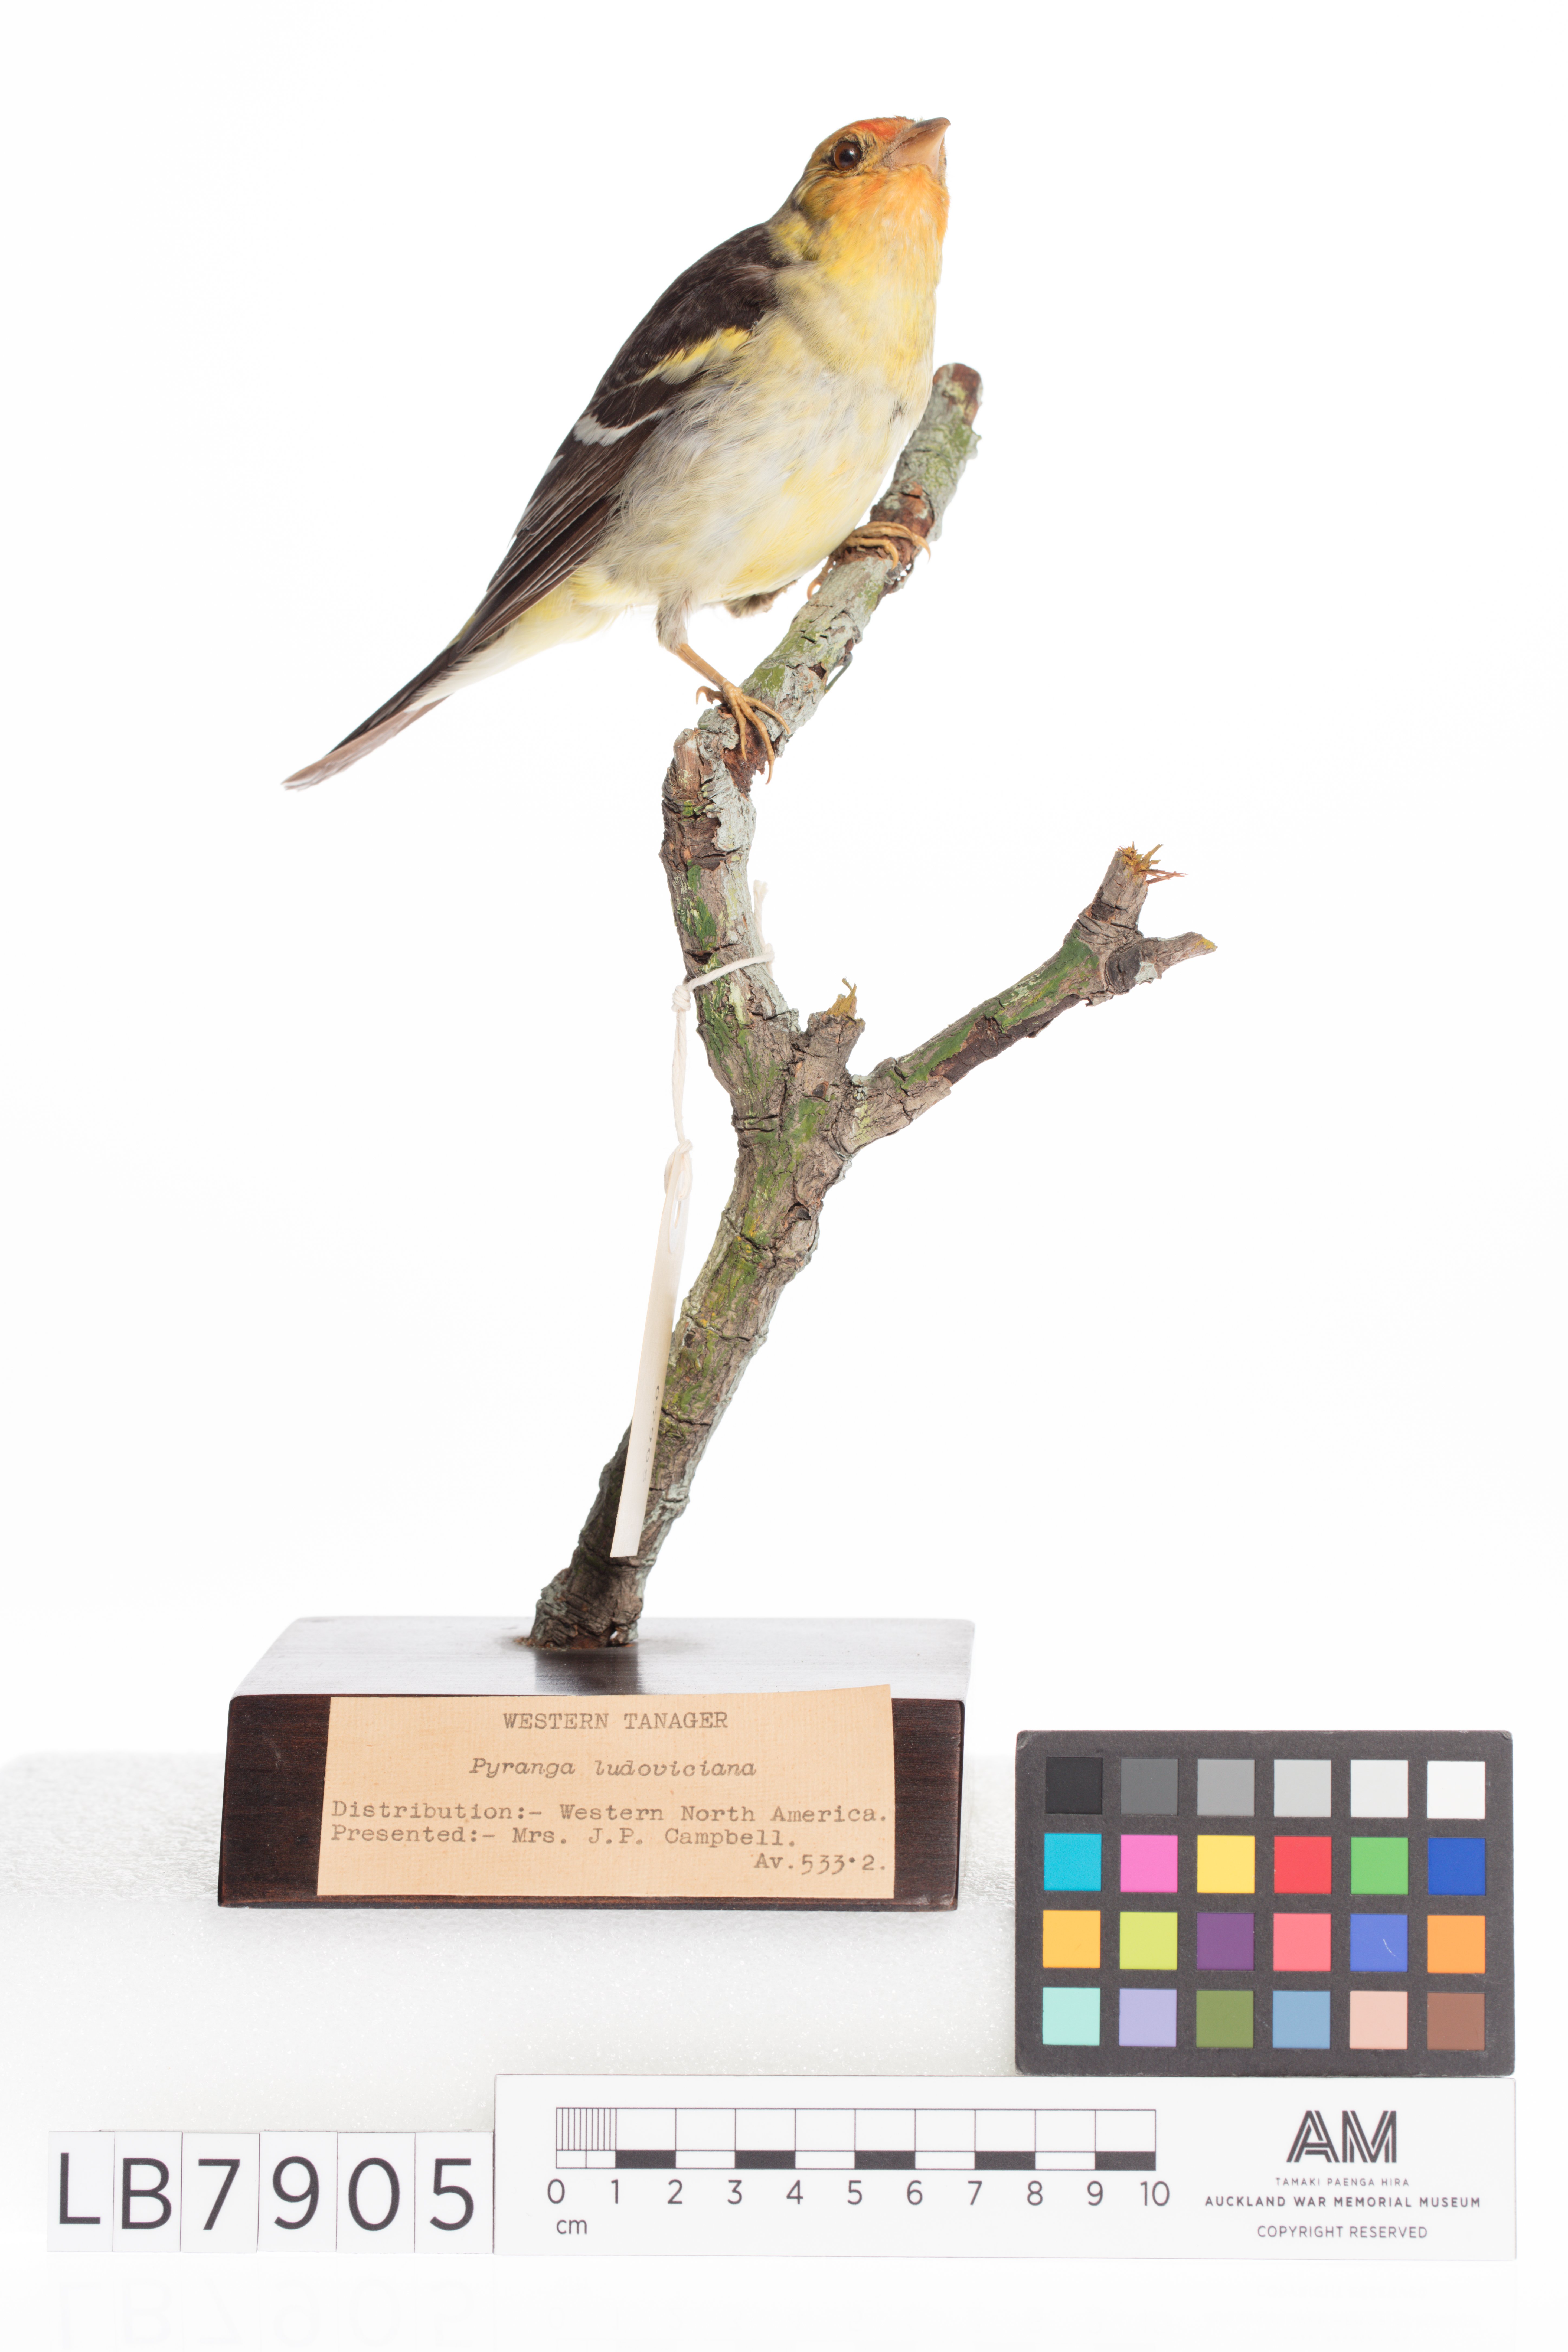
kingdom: Animalia
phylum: Chordata
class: Aves
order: Passeriformes
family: Cardinalidae
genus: Piranga
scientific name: Piranga ludoviciana
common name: Western tanager
